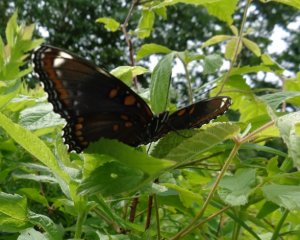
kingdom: Animalia
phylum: Arthropoda
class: Insecta
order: Lepidoptera
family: Nymphalidae
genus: Limenitis
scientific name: Limenitis
